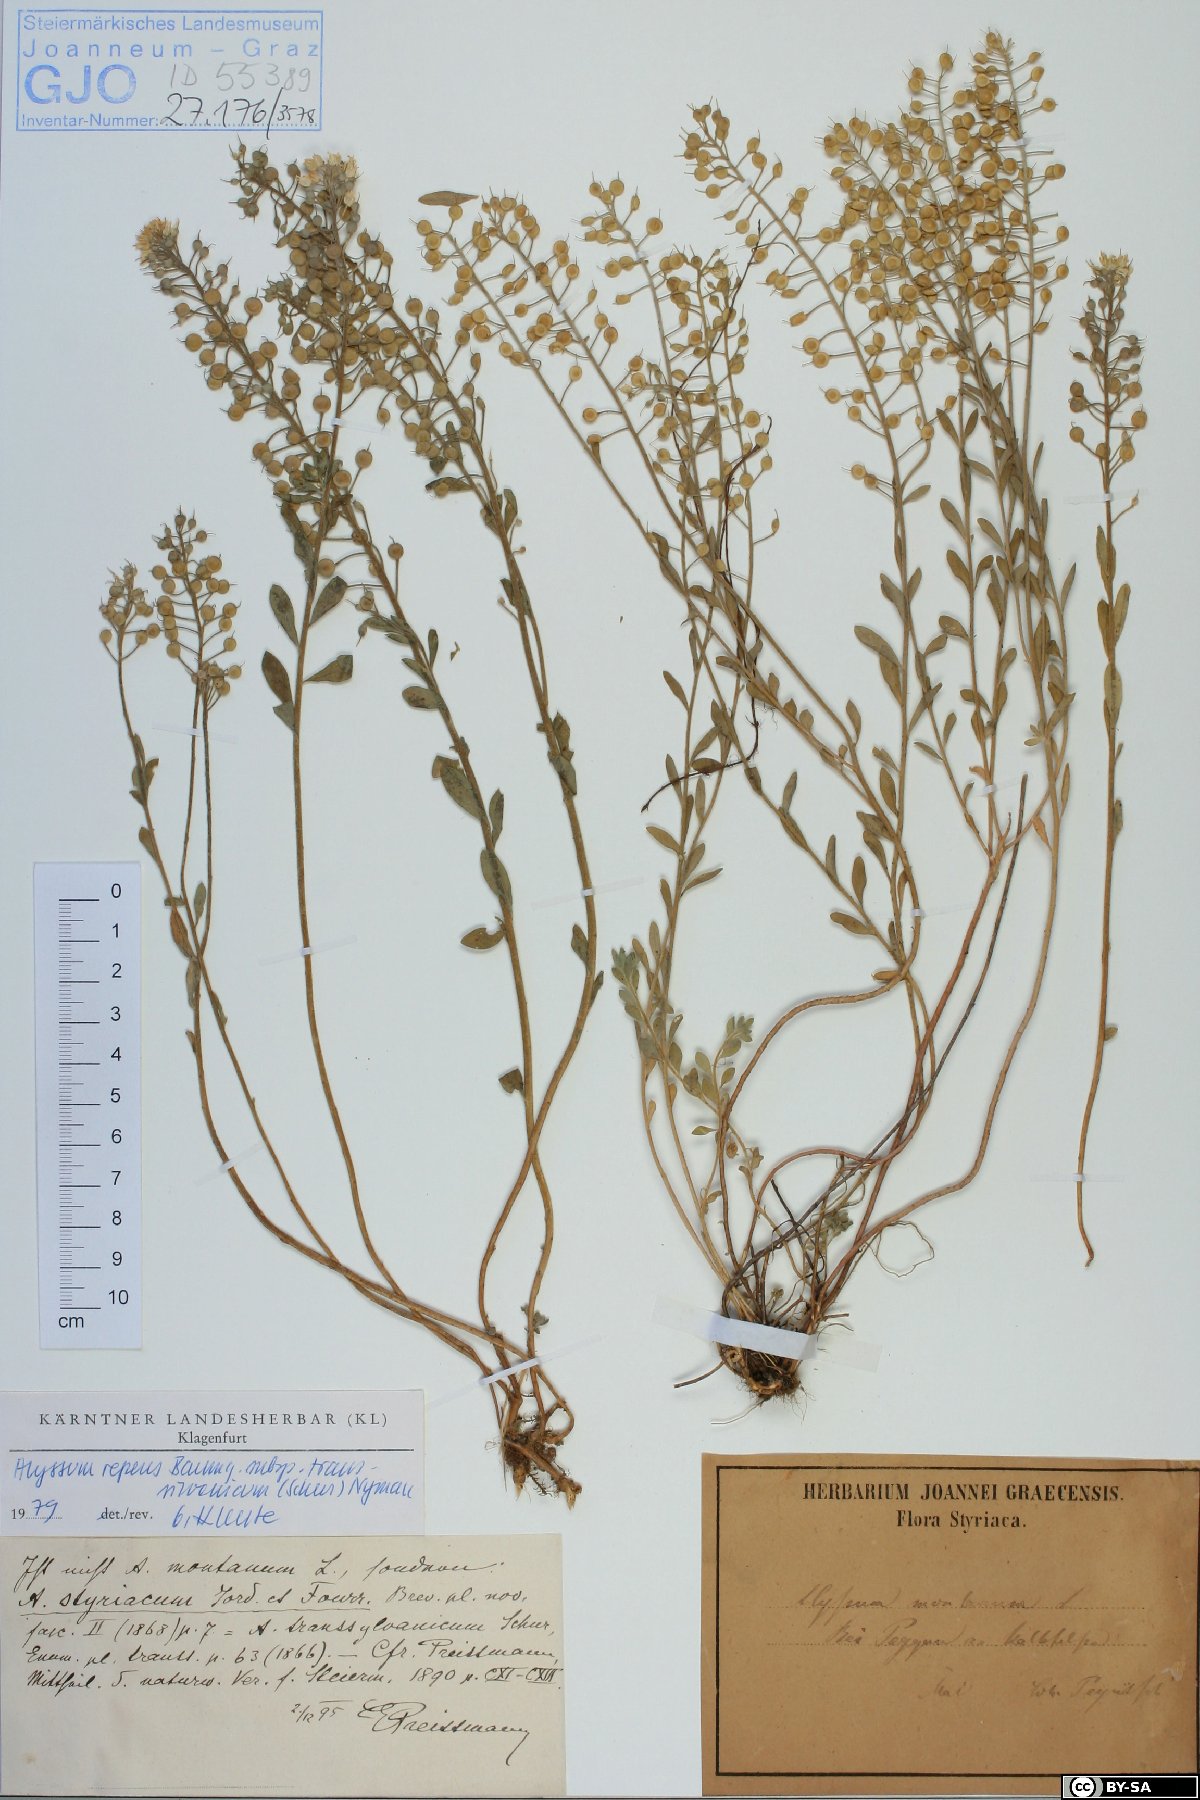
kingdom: Plantae
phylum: Tracheophyta
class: Magnoliopsida
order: Brassicales
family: Brassicaceae
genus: Alyssum
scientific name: Alyssum repens
